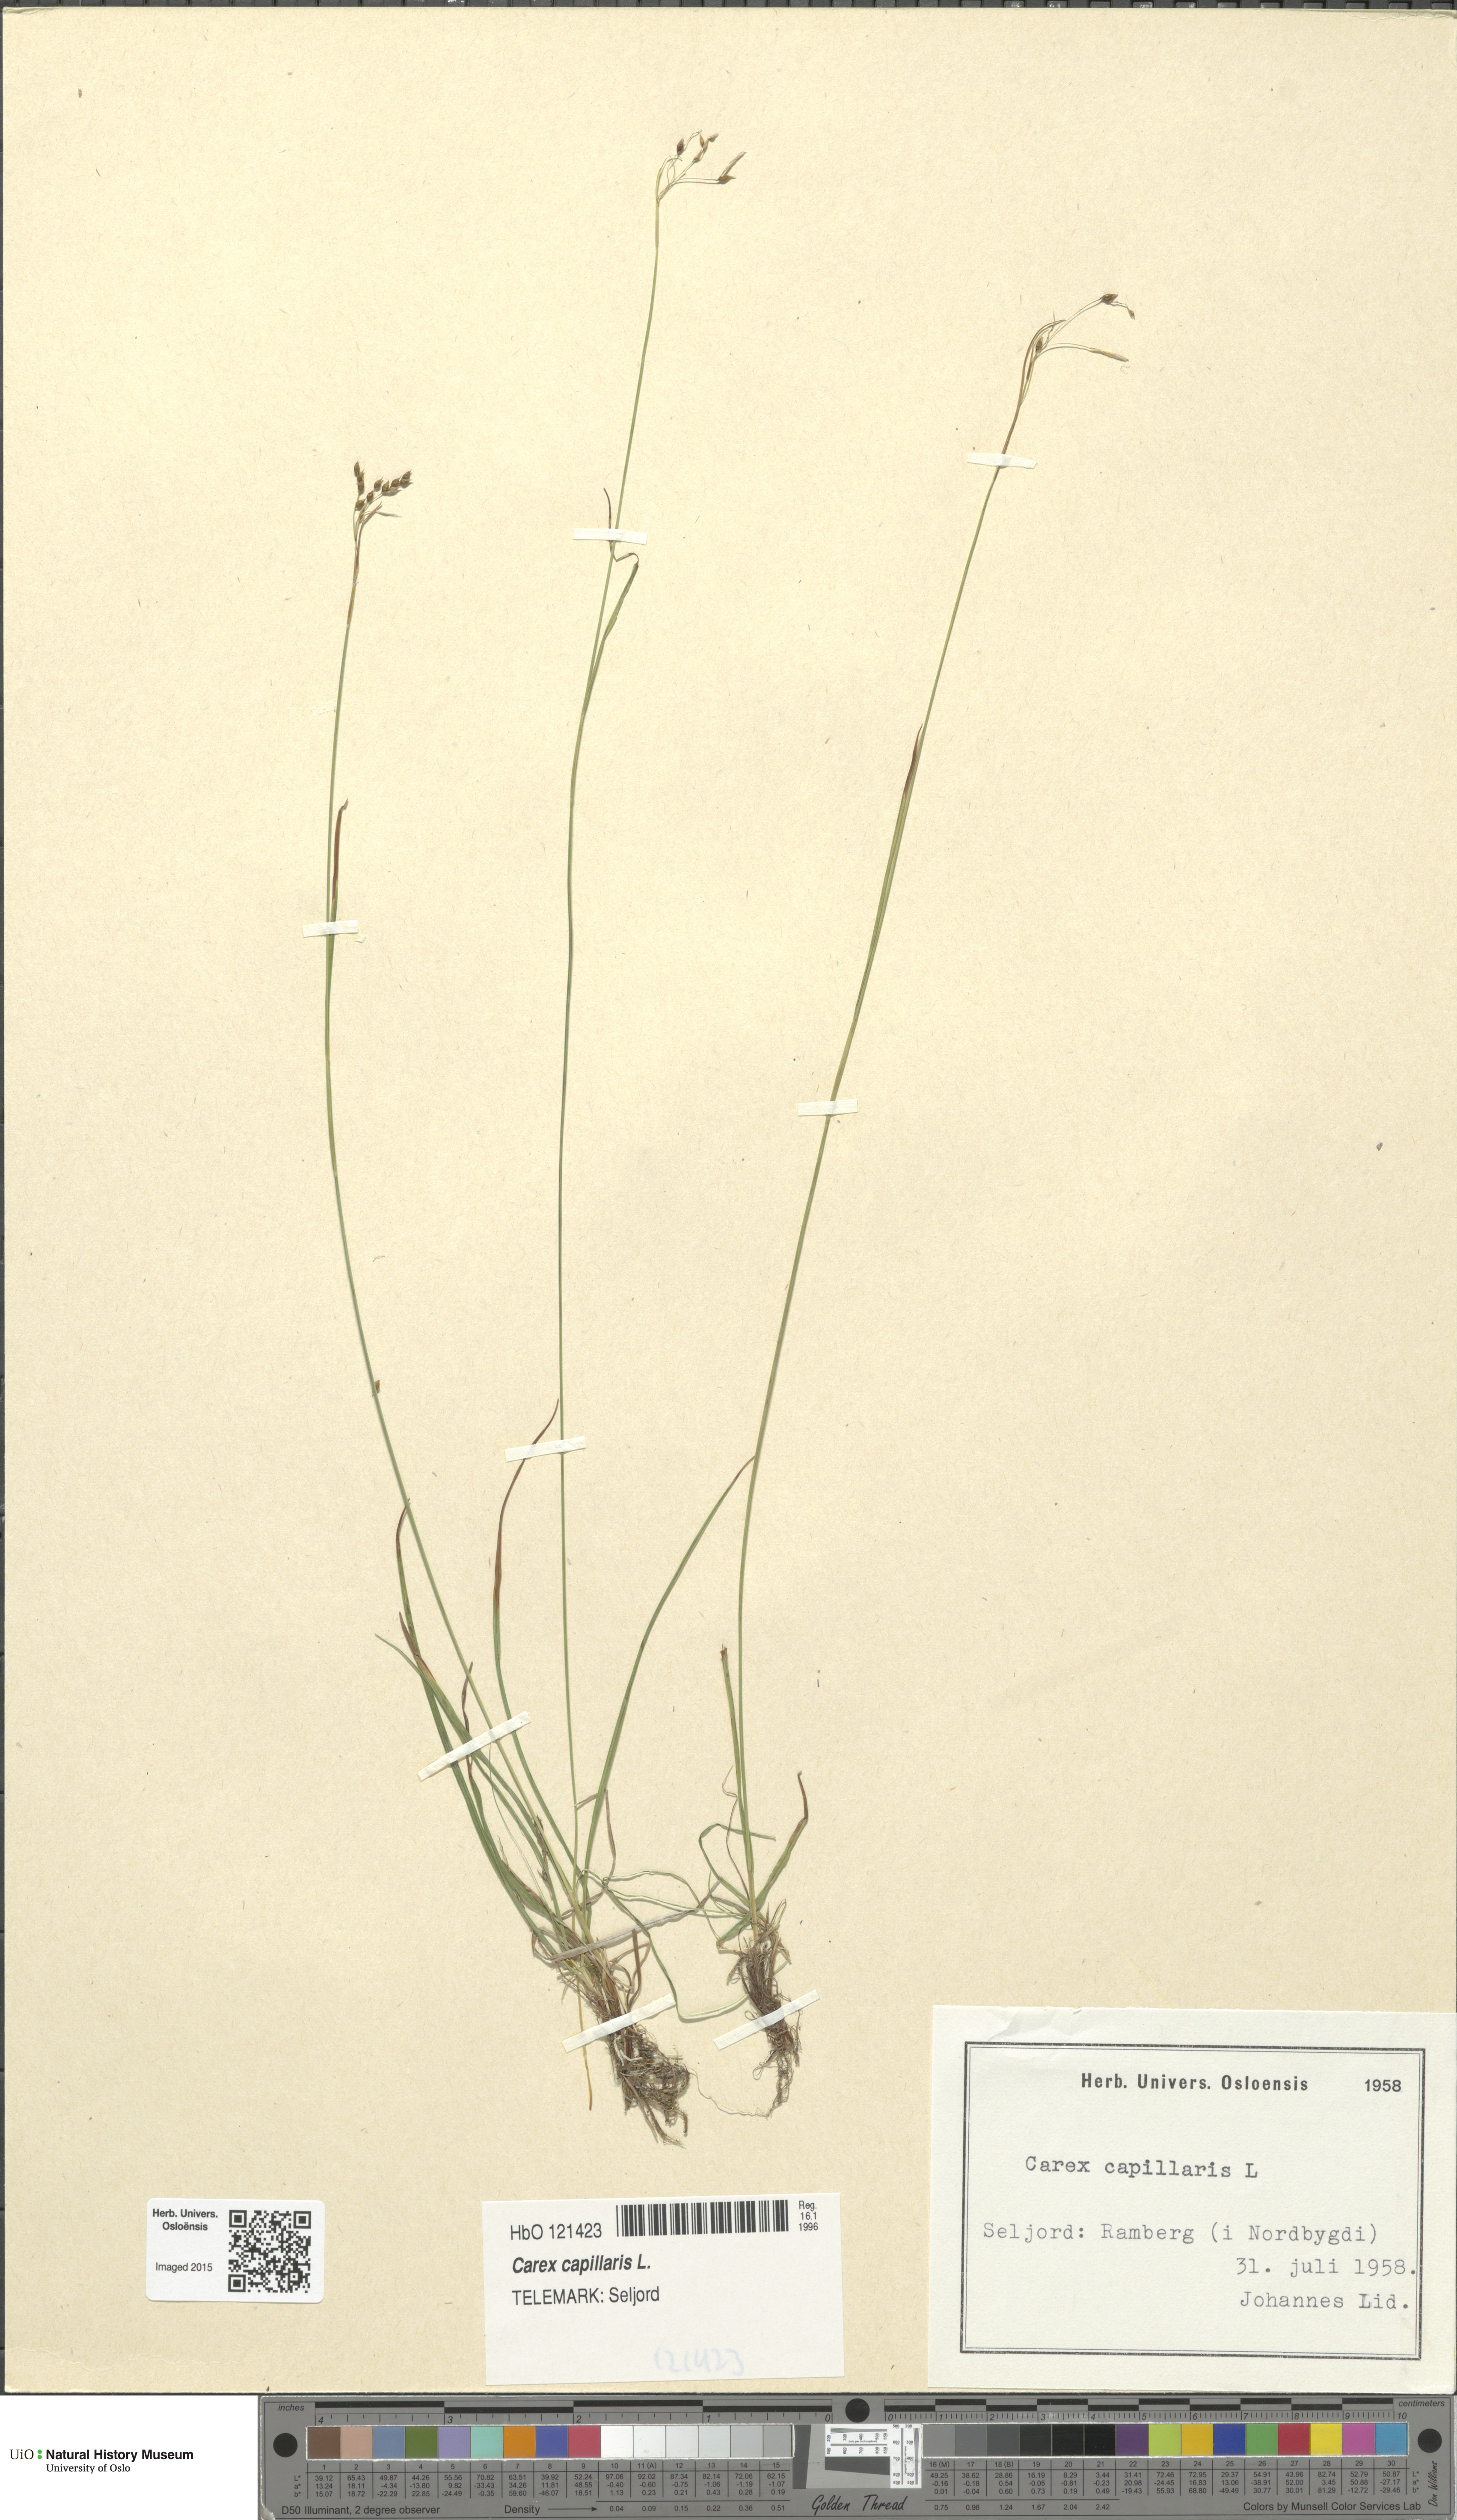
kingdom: Plantae
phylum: Tracheophyta
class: Liliopsida
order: Poales
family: Cyperaceae
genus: Carex
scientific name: Carex capillaris
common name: Hair sedge
